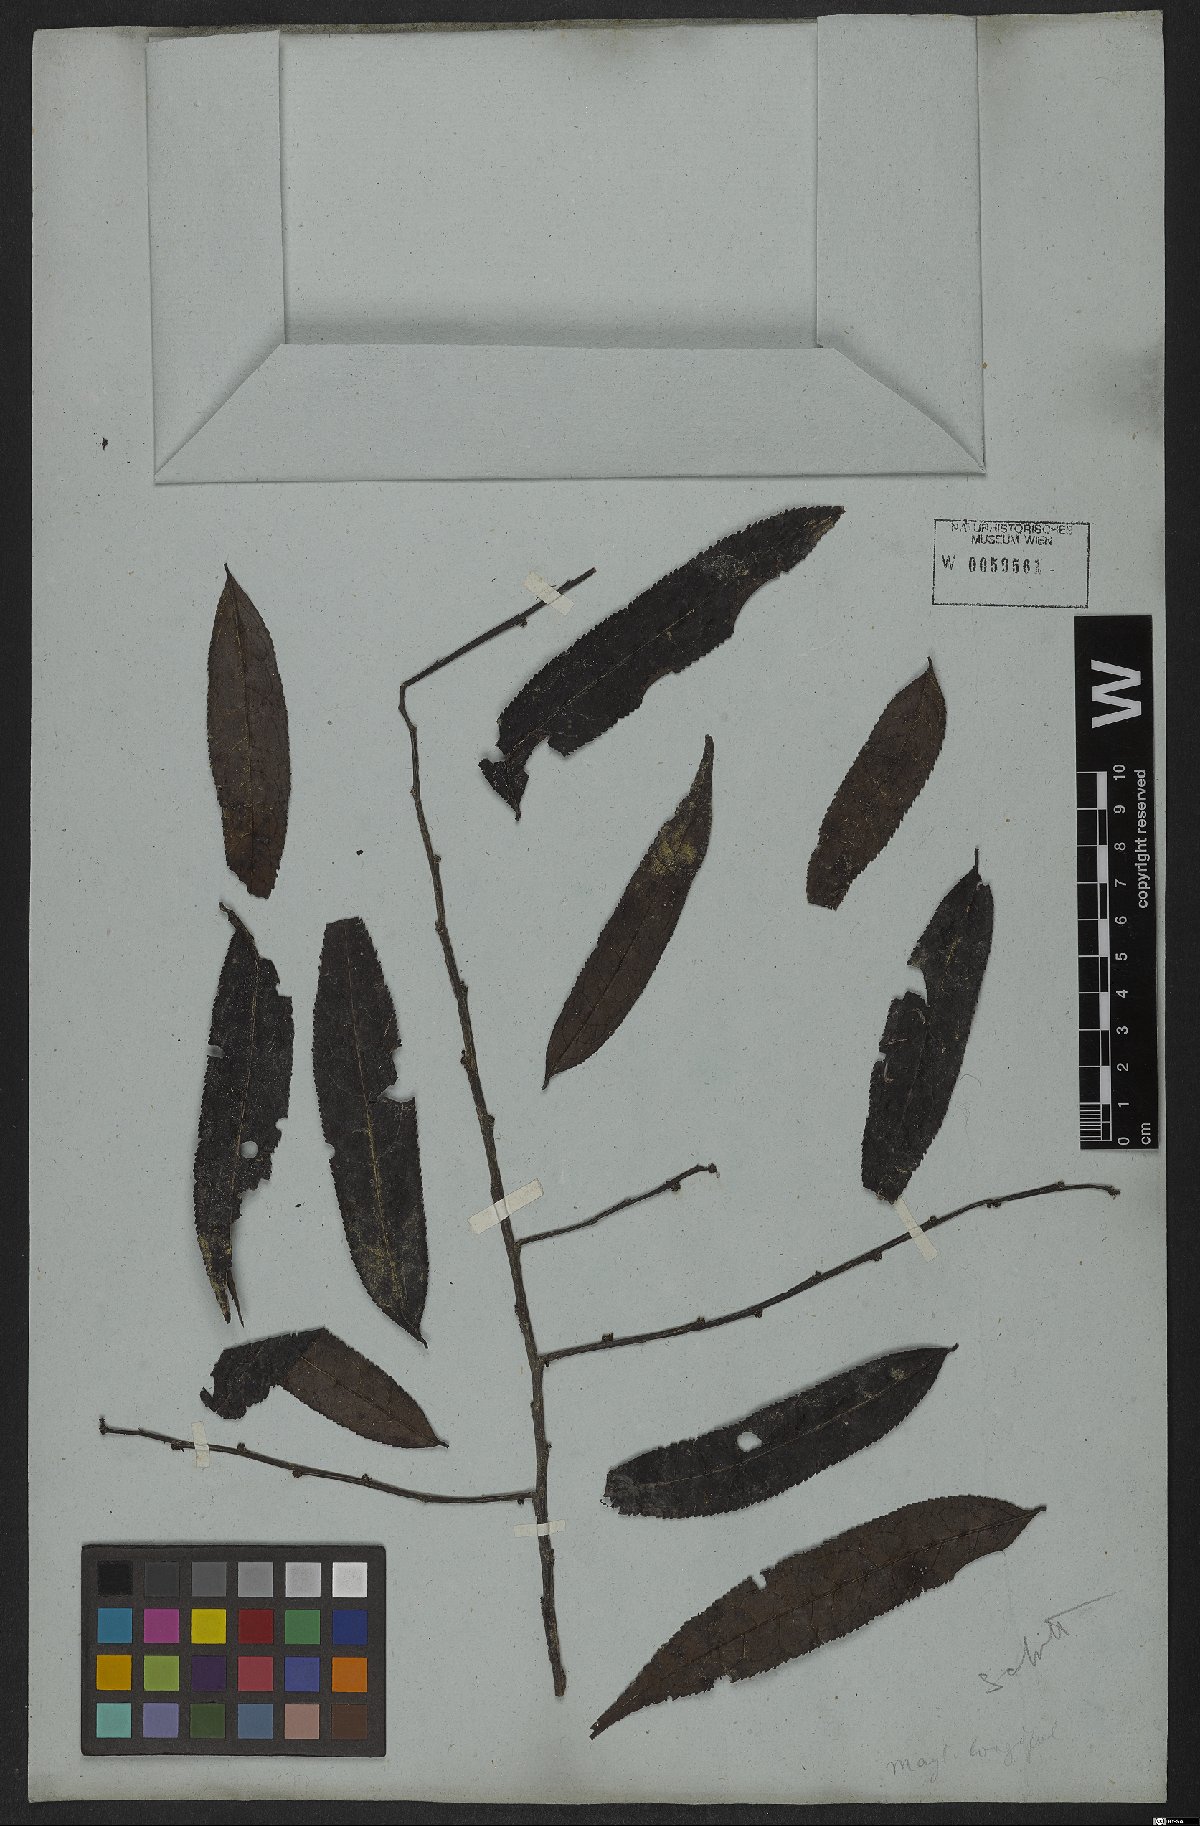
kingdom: Plantae
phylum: Tracheophyta
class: Magnoliopsida
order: Celastrales
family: Celastraceae
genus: Maytenus
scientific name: Maytenus salicifolia
